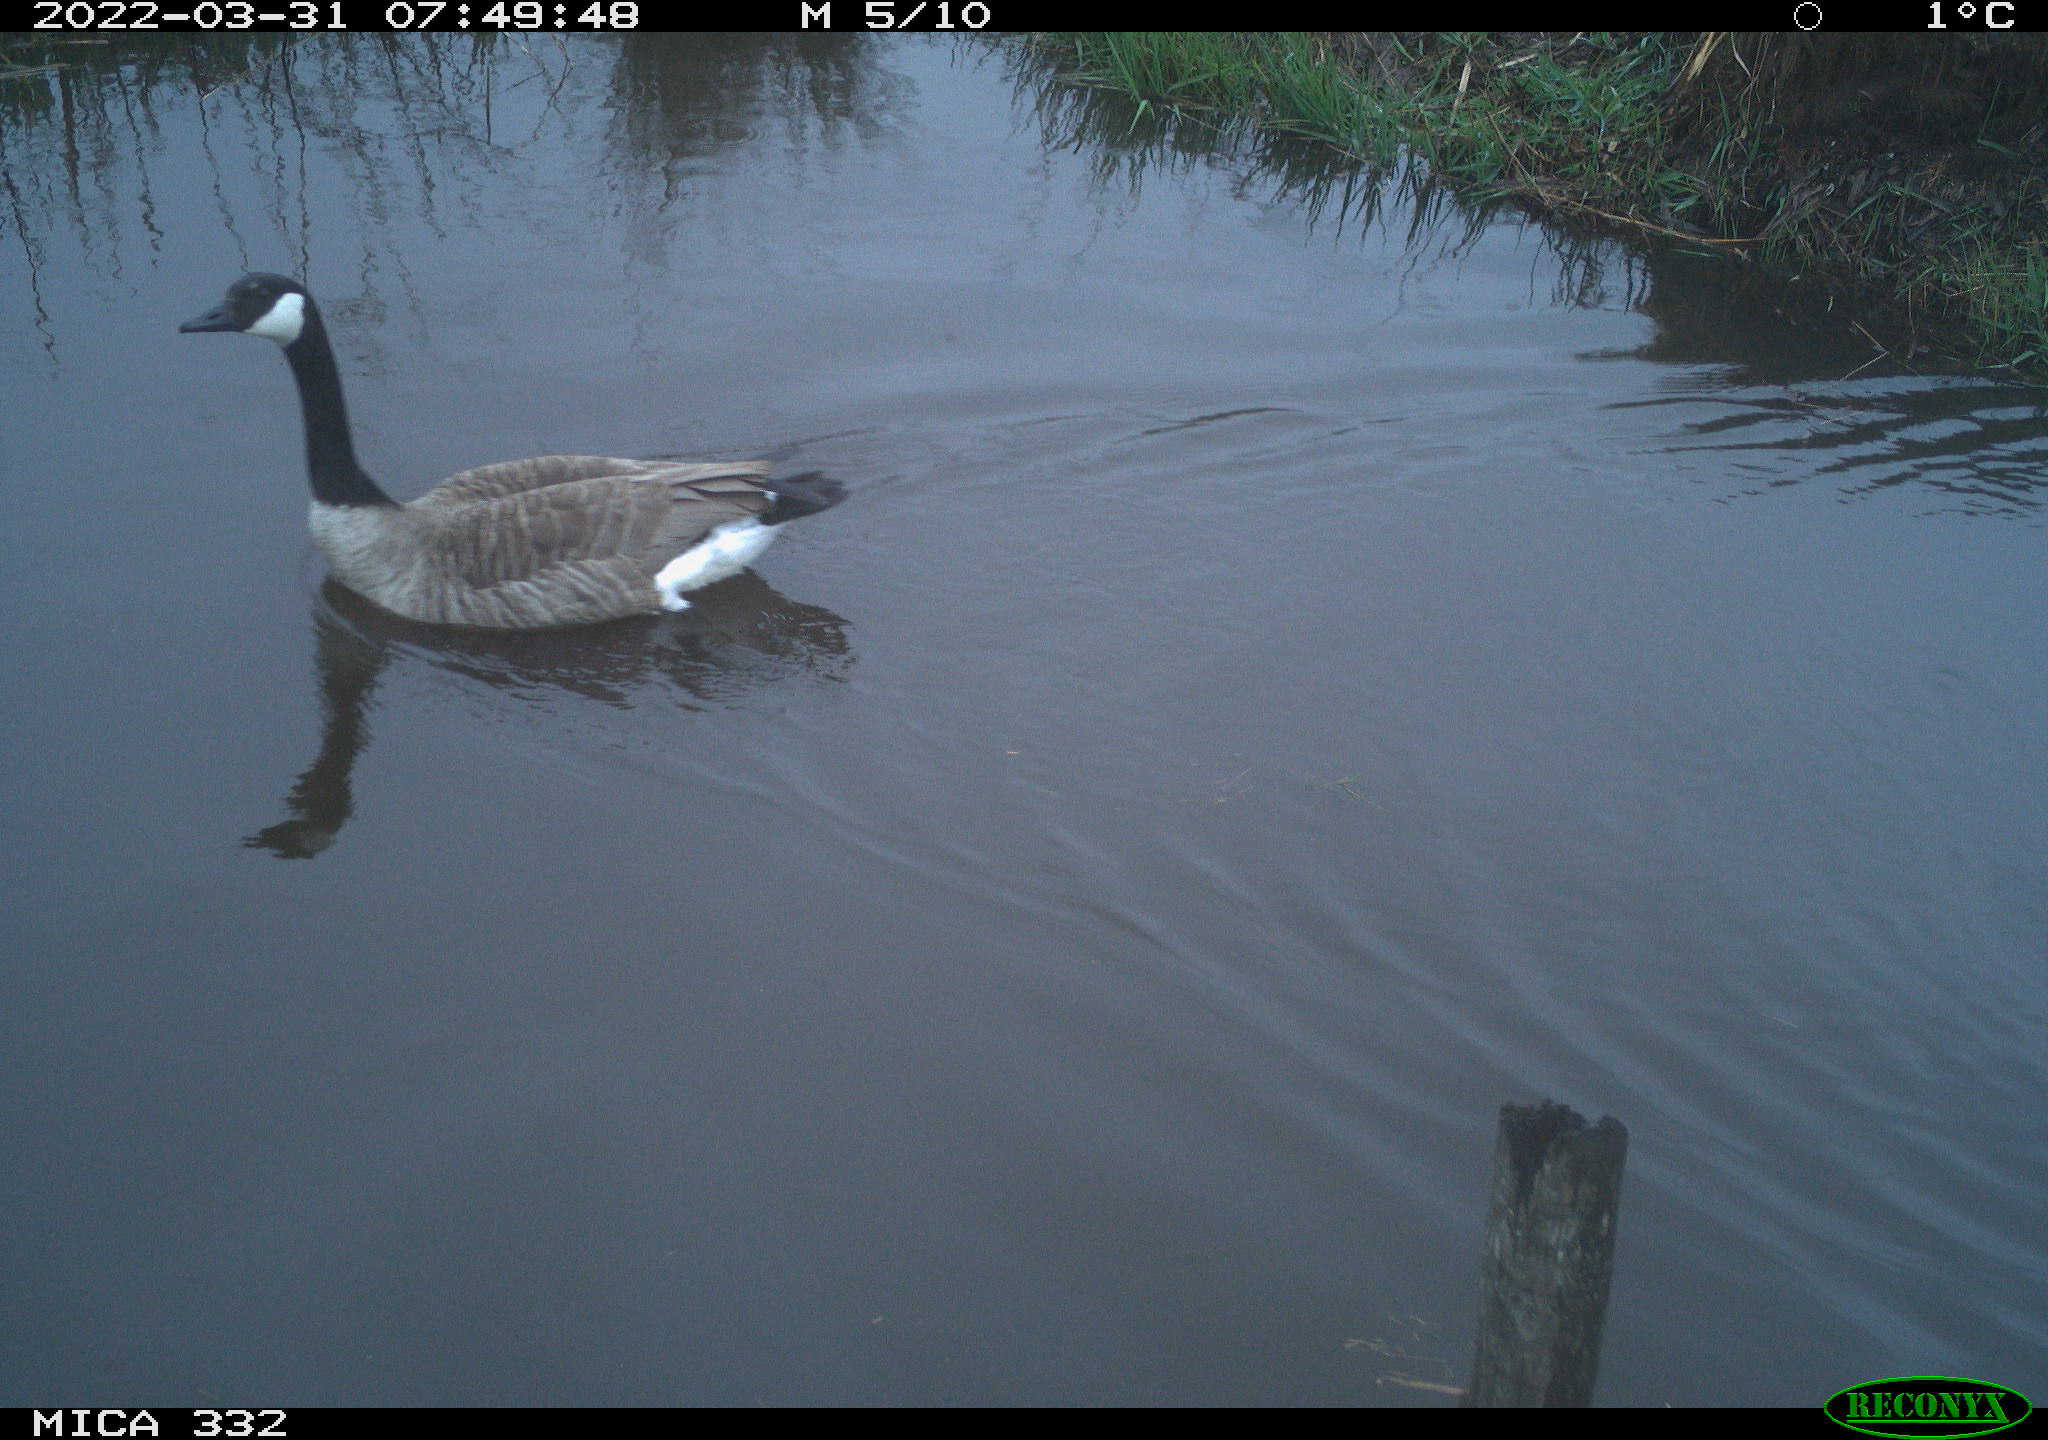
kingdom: Animalia
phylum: Chordata
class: Aves
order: Anseriformes
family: Anatidae
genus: Branta
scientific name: Branta canadensis
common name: Canada goose
